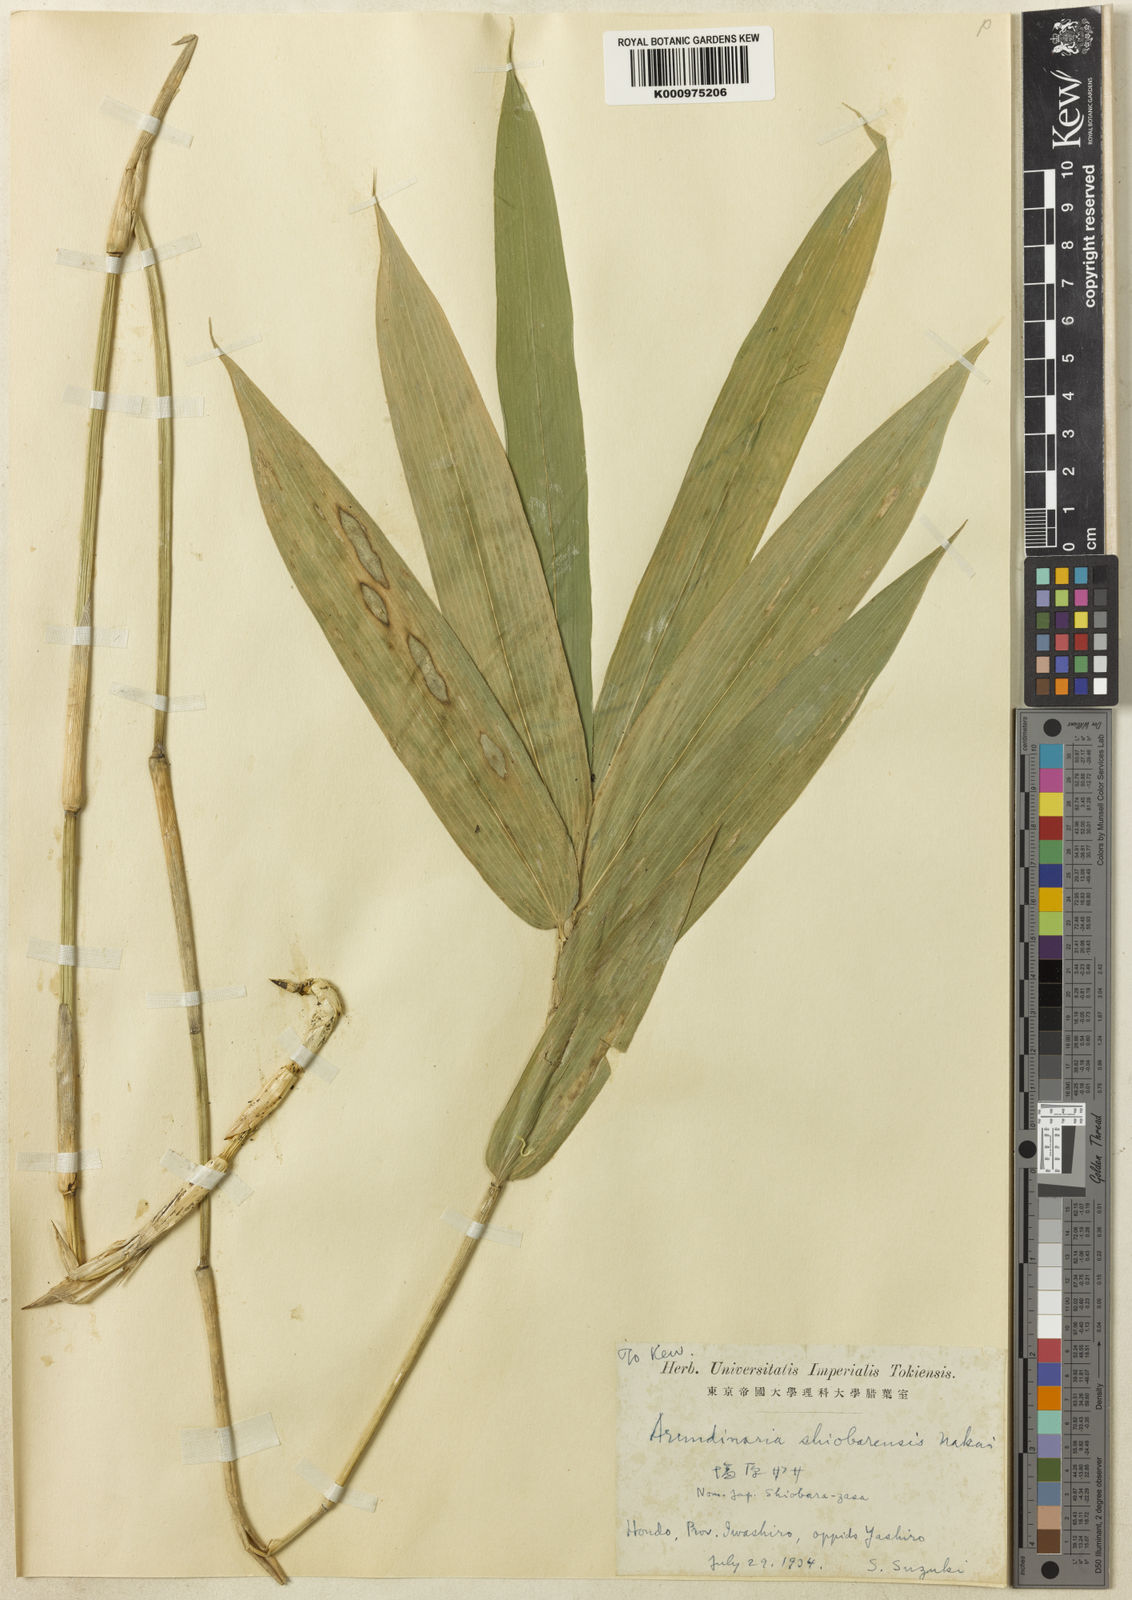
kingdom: Plantae
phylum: Tracheophyta
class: Liliopsida
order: Poales
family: Poaceae
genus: Sasaella
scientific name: Sasaella shiobarensis
